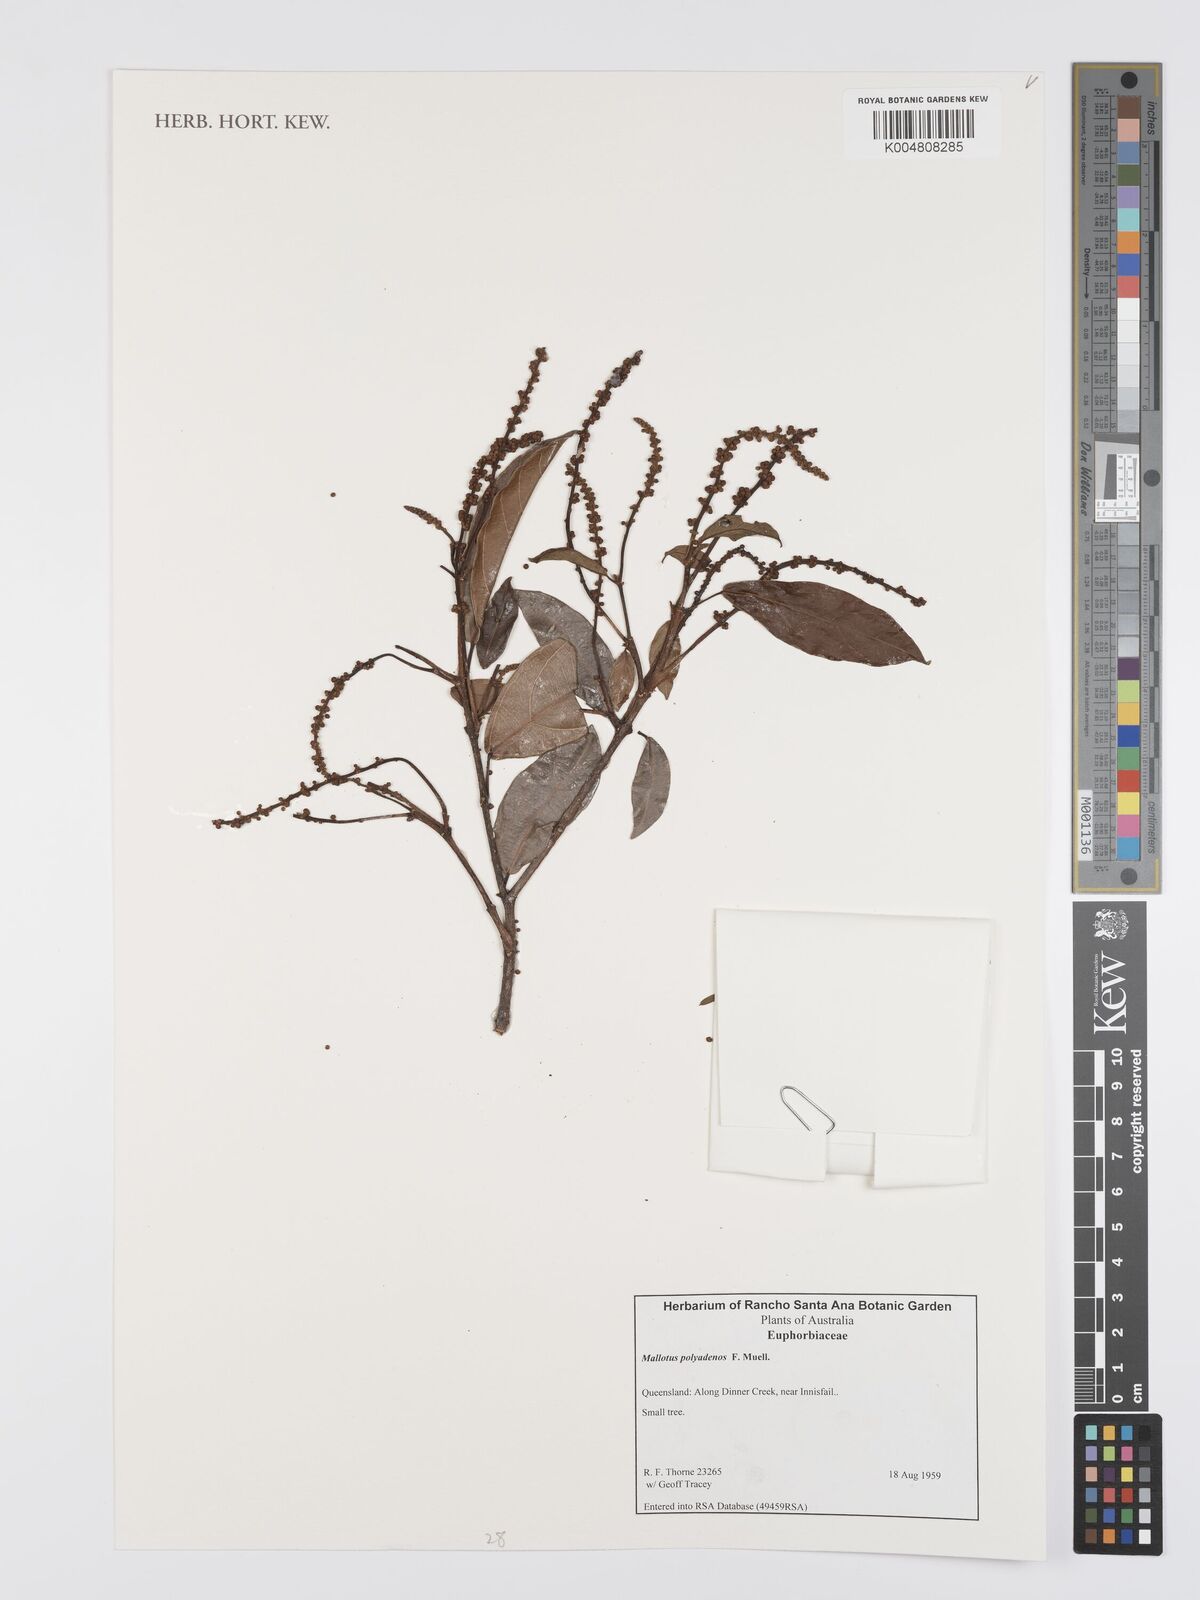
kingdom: Plantae
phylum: Tracheophyta
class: Magnoliopsida
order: Malpighiales
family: Euphorbiaceae
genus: Mallotus
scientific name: Mallotus polyadenos
